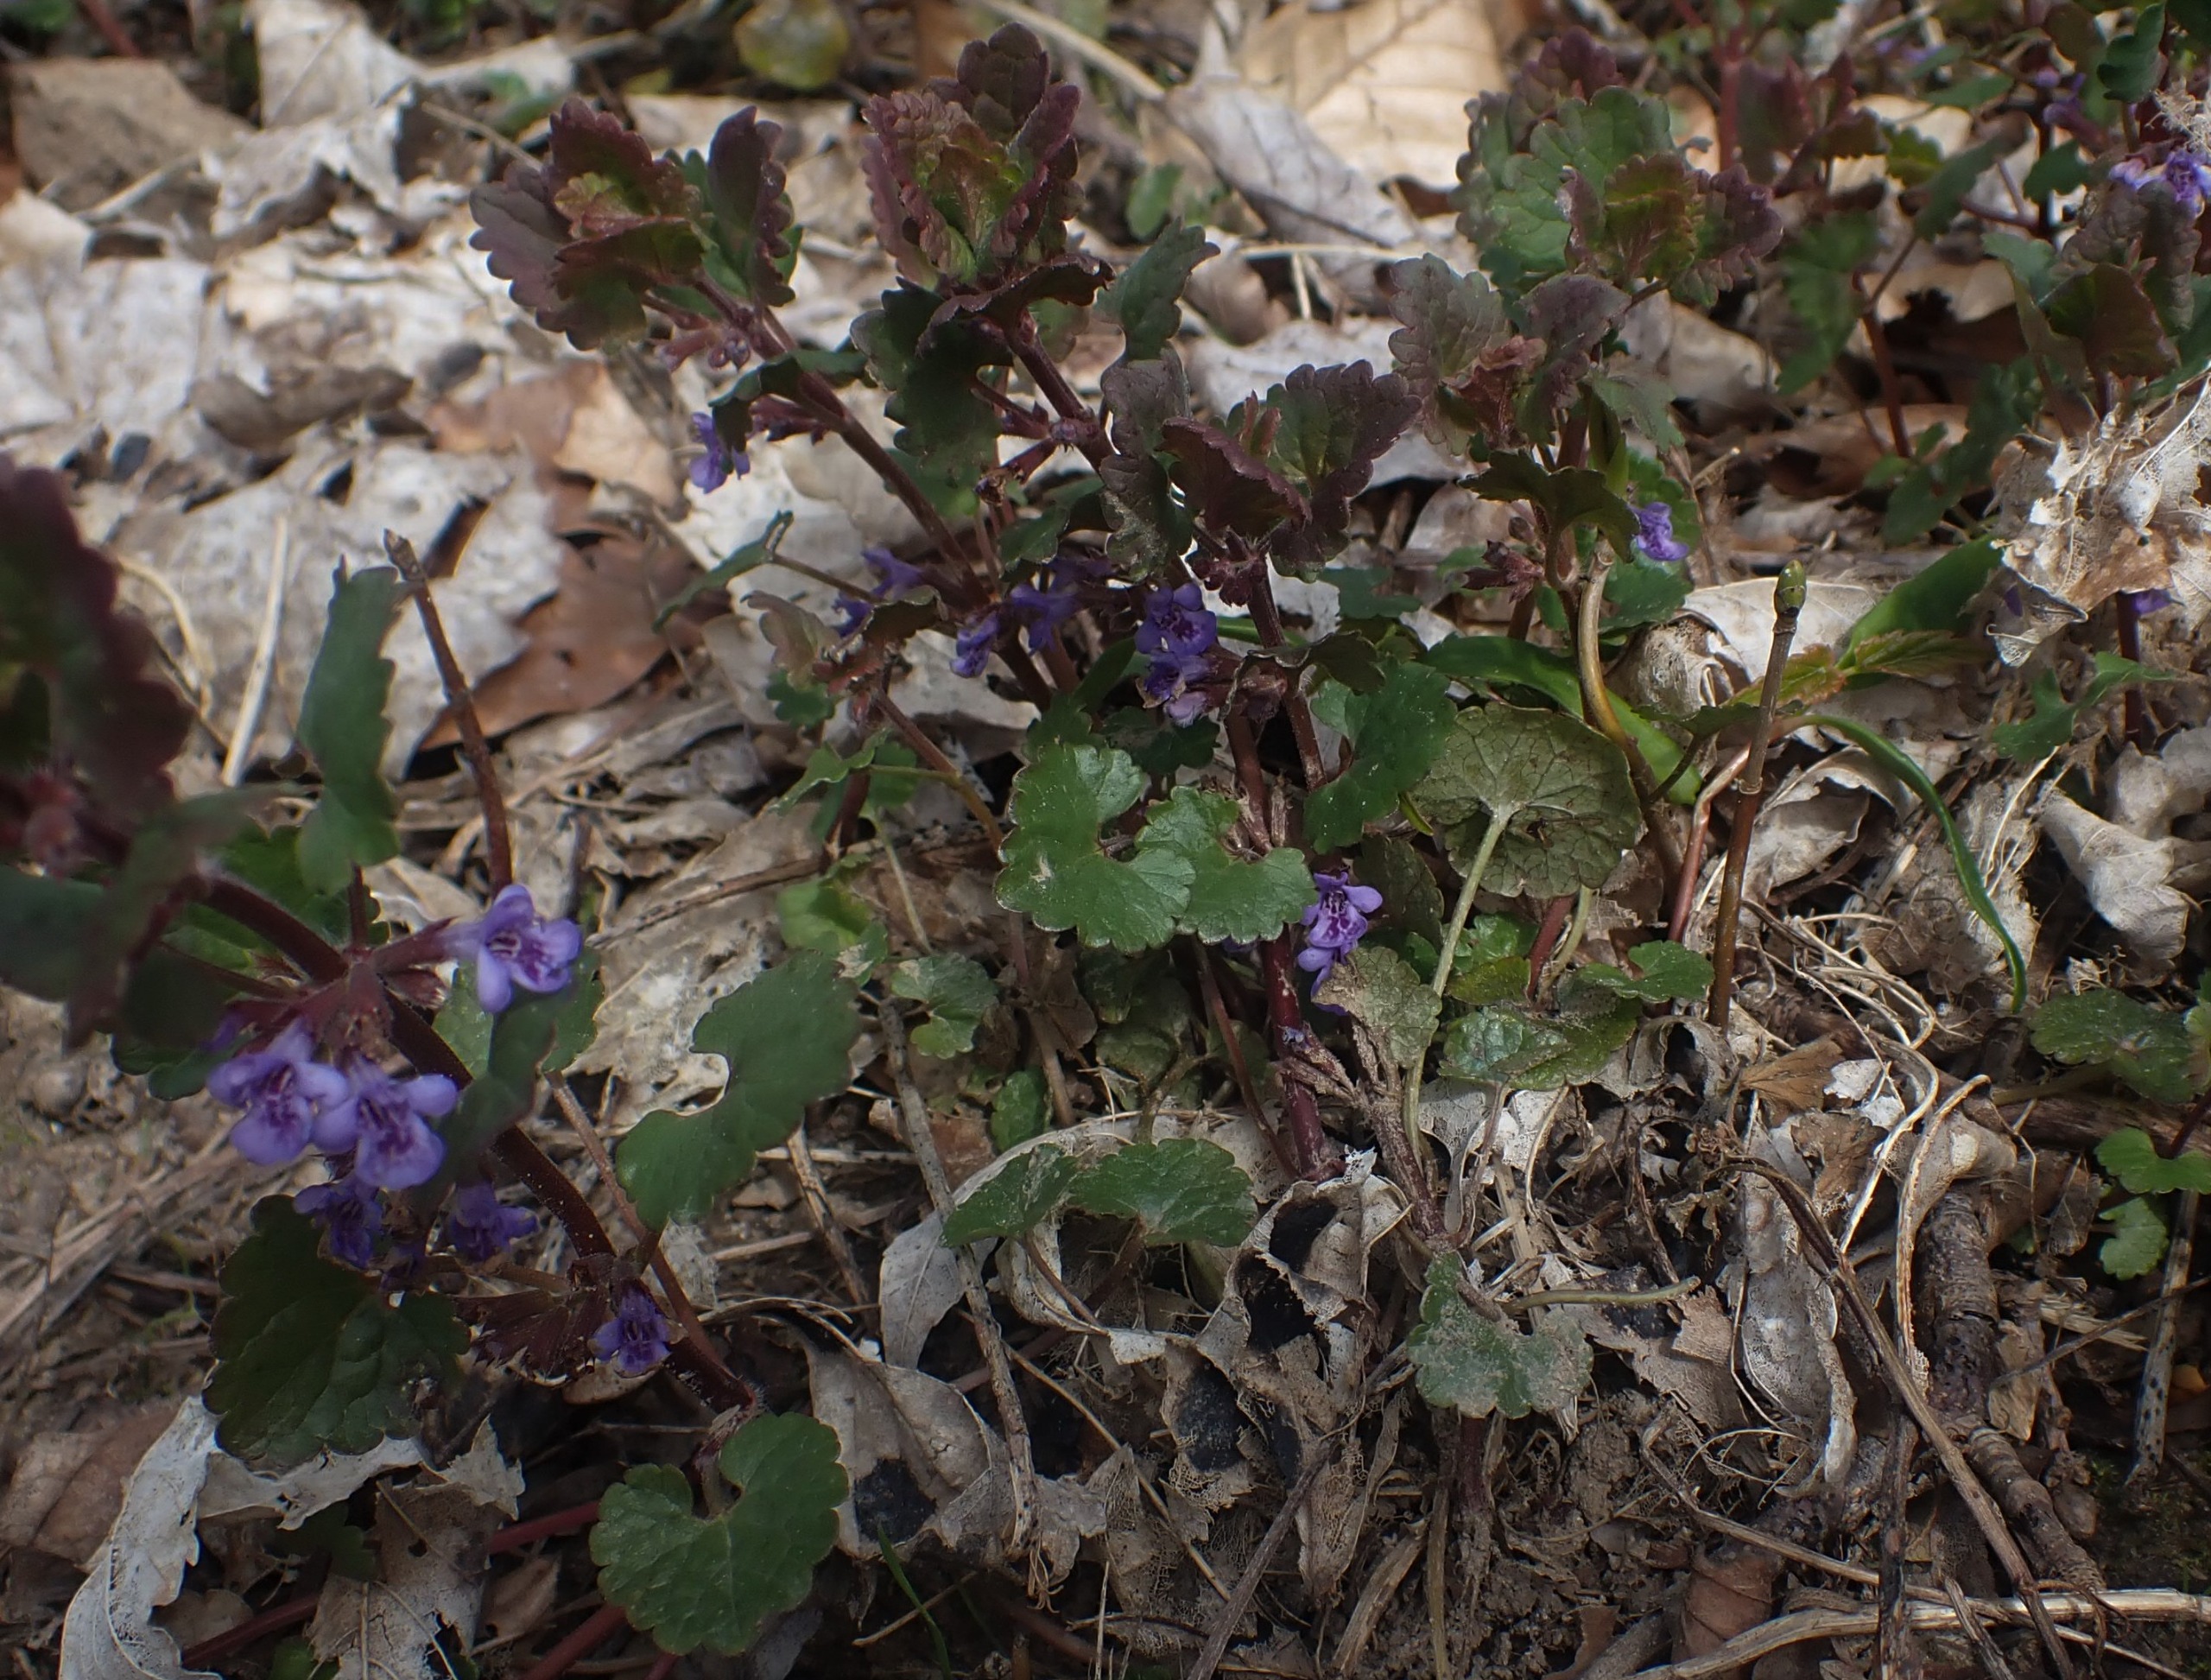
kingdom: Plantae
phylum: Tracheophyta
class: Magnoliopsida
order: Lamiales
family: Lamiaceae
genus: Glechoma
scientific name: Glechoma hederacea
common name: Korsknap
